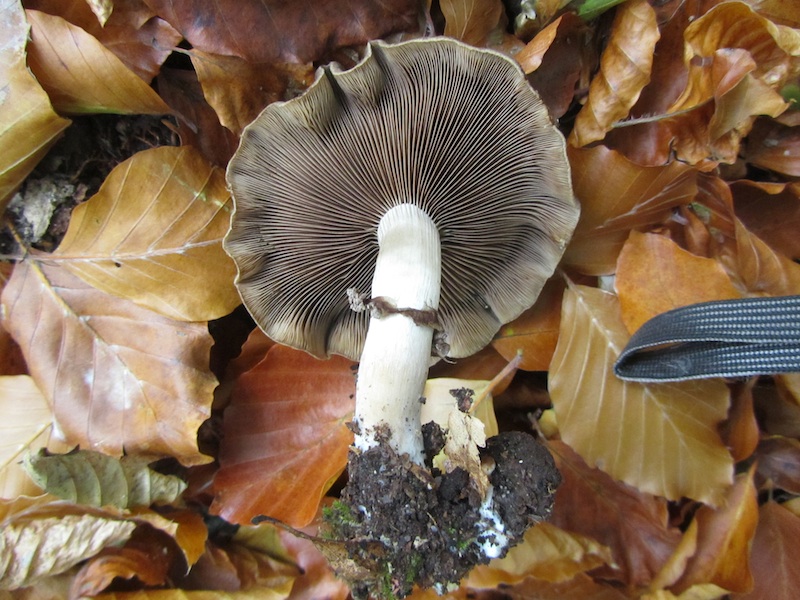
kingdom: Fungi
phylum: Basidiomycota
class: Agaricomycetes
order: Agaricales
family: Psathyrellaceae
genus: Psathyrella
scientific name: Psathyrella piluliformis
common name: lysstokket mørkhat
